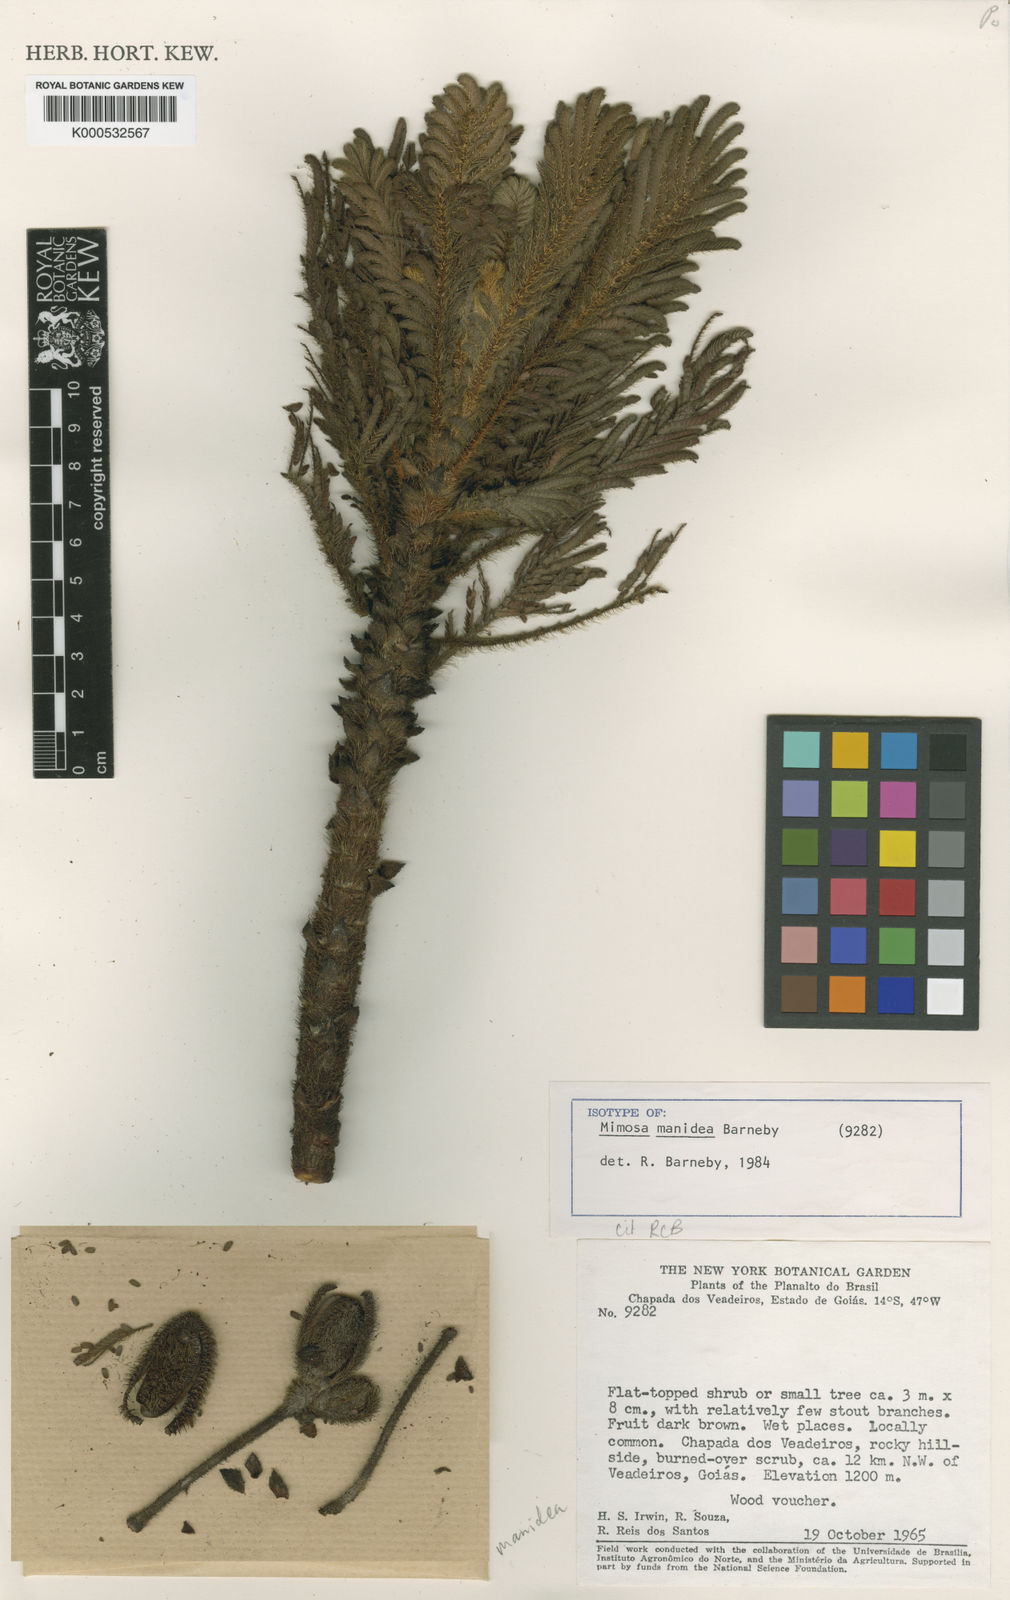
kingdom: Plantae
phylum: Tracheophyta
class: Magnoliopsida
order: Fabales
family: Fabaceae
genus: Mimosa
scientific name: Mimosa manidea
